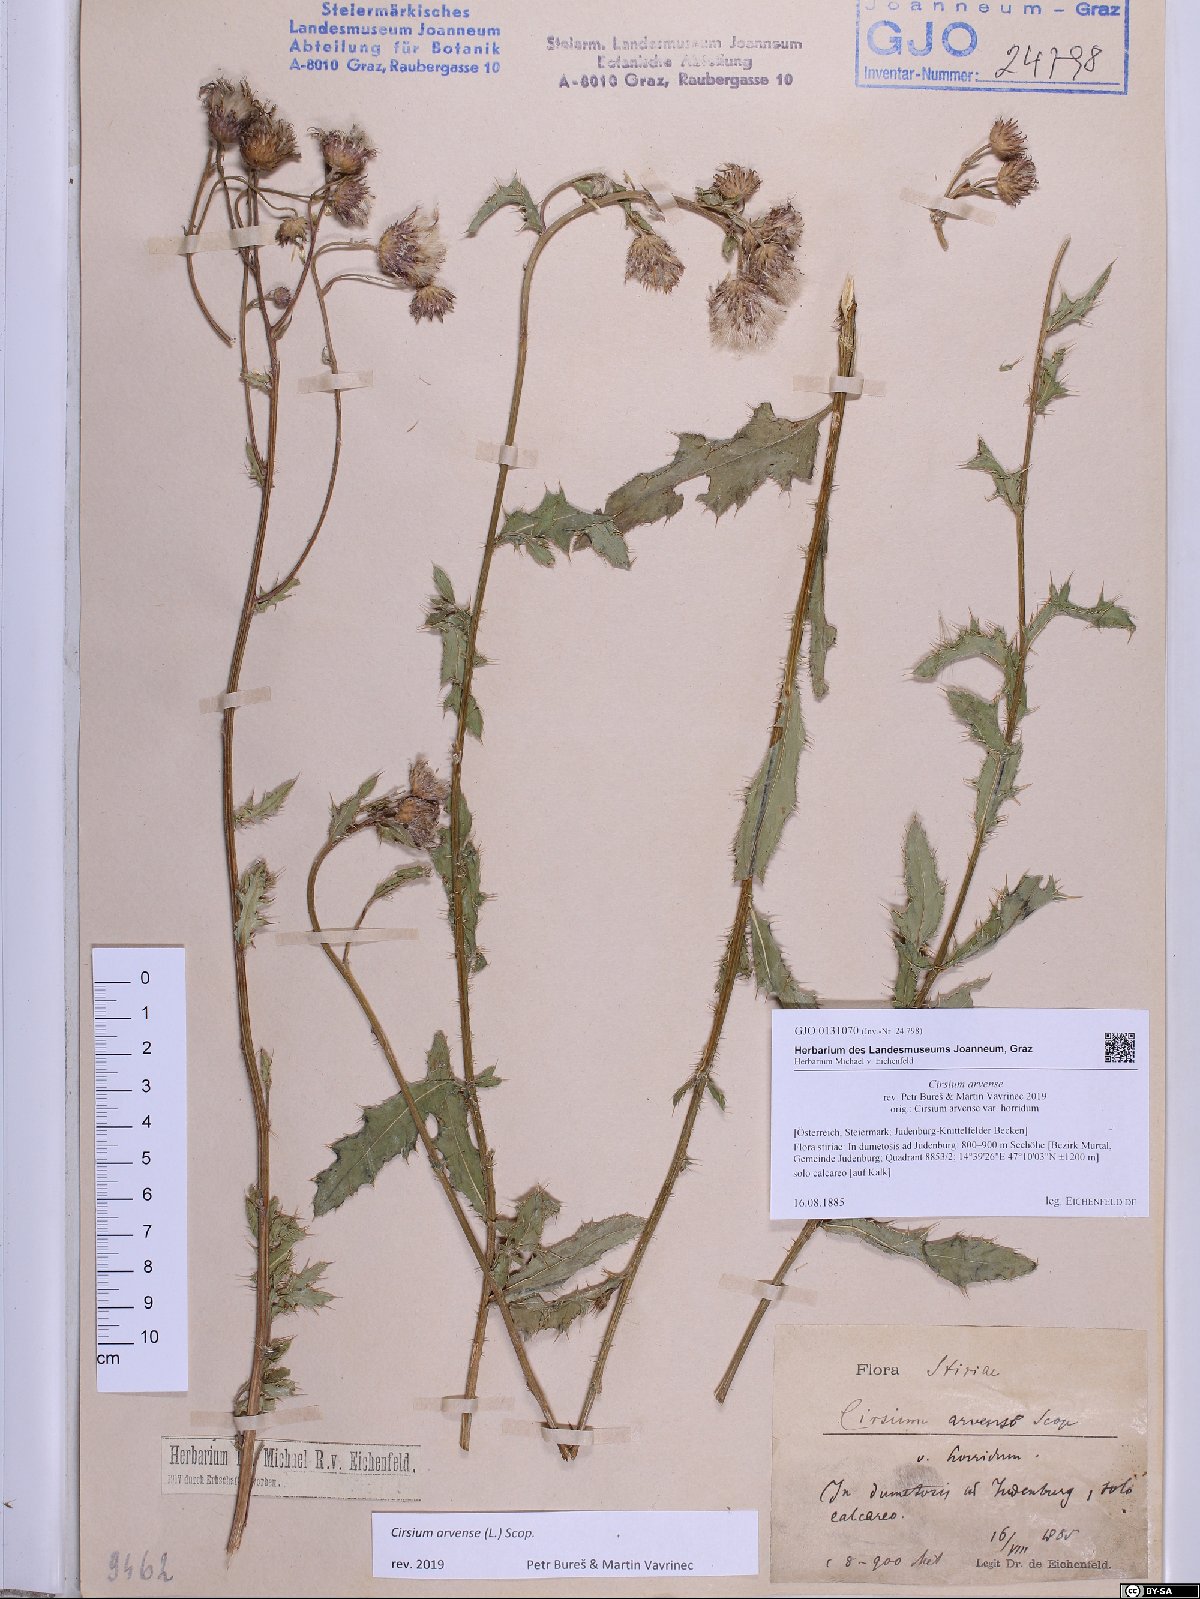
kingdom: Plantae
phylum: Tracheophyta
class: Magnoliopsida
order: Asterales
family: Asteraceae
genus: Cirsium
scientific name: Cirsium arvense
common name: Creeping thistle
